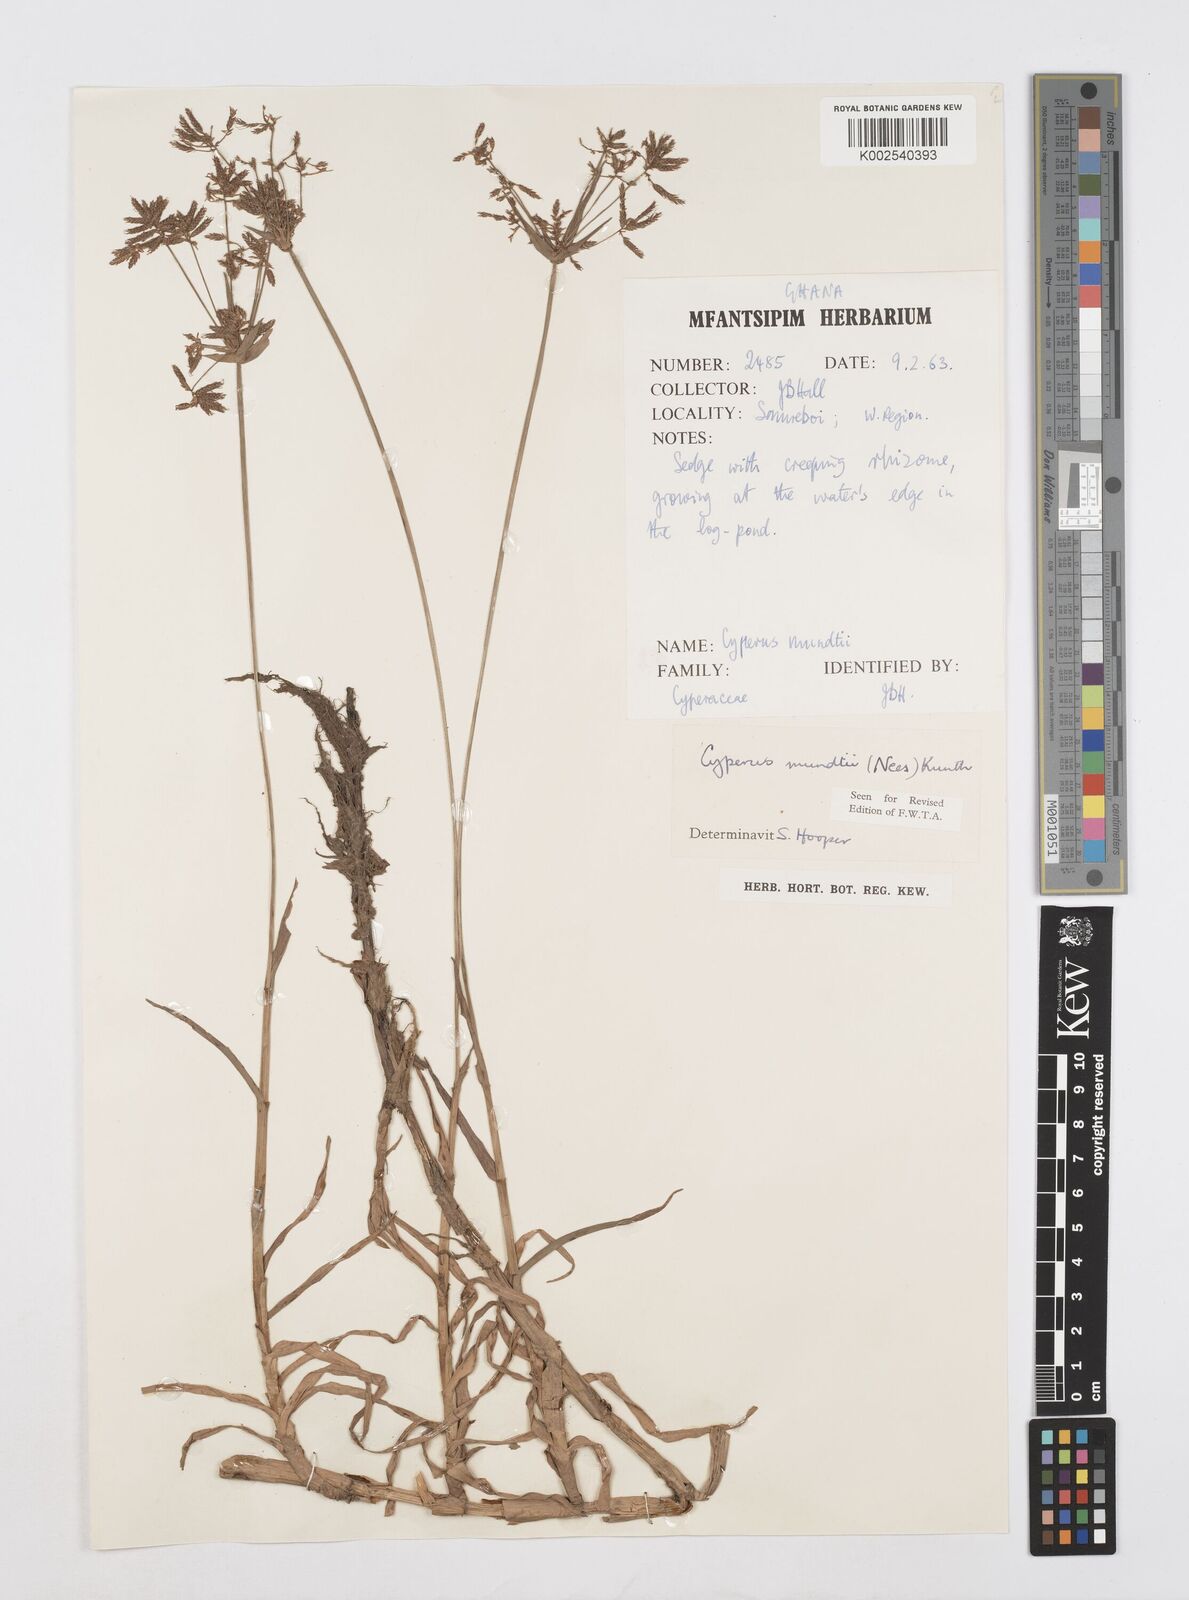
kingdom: Plantae
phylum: Tracheophyta
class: Liliopsida
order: Poales
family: Cyperaceae
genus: Cyperus
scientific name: Cyperus mundii
